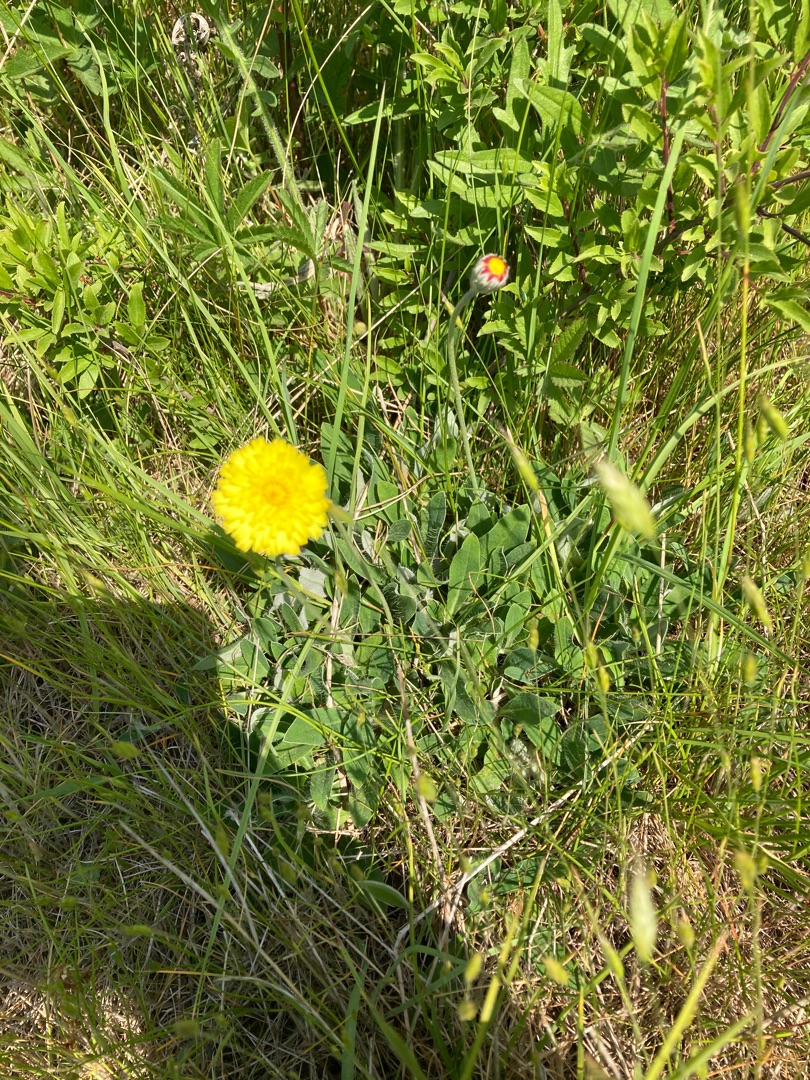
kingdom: Plantae
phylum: Tracheophyta
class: Magnoliopsida
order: Asterales
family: Asteraceae
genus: Pilosella
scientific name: Pilosella officinarum
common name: Håret høgeurt
